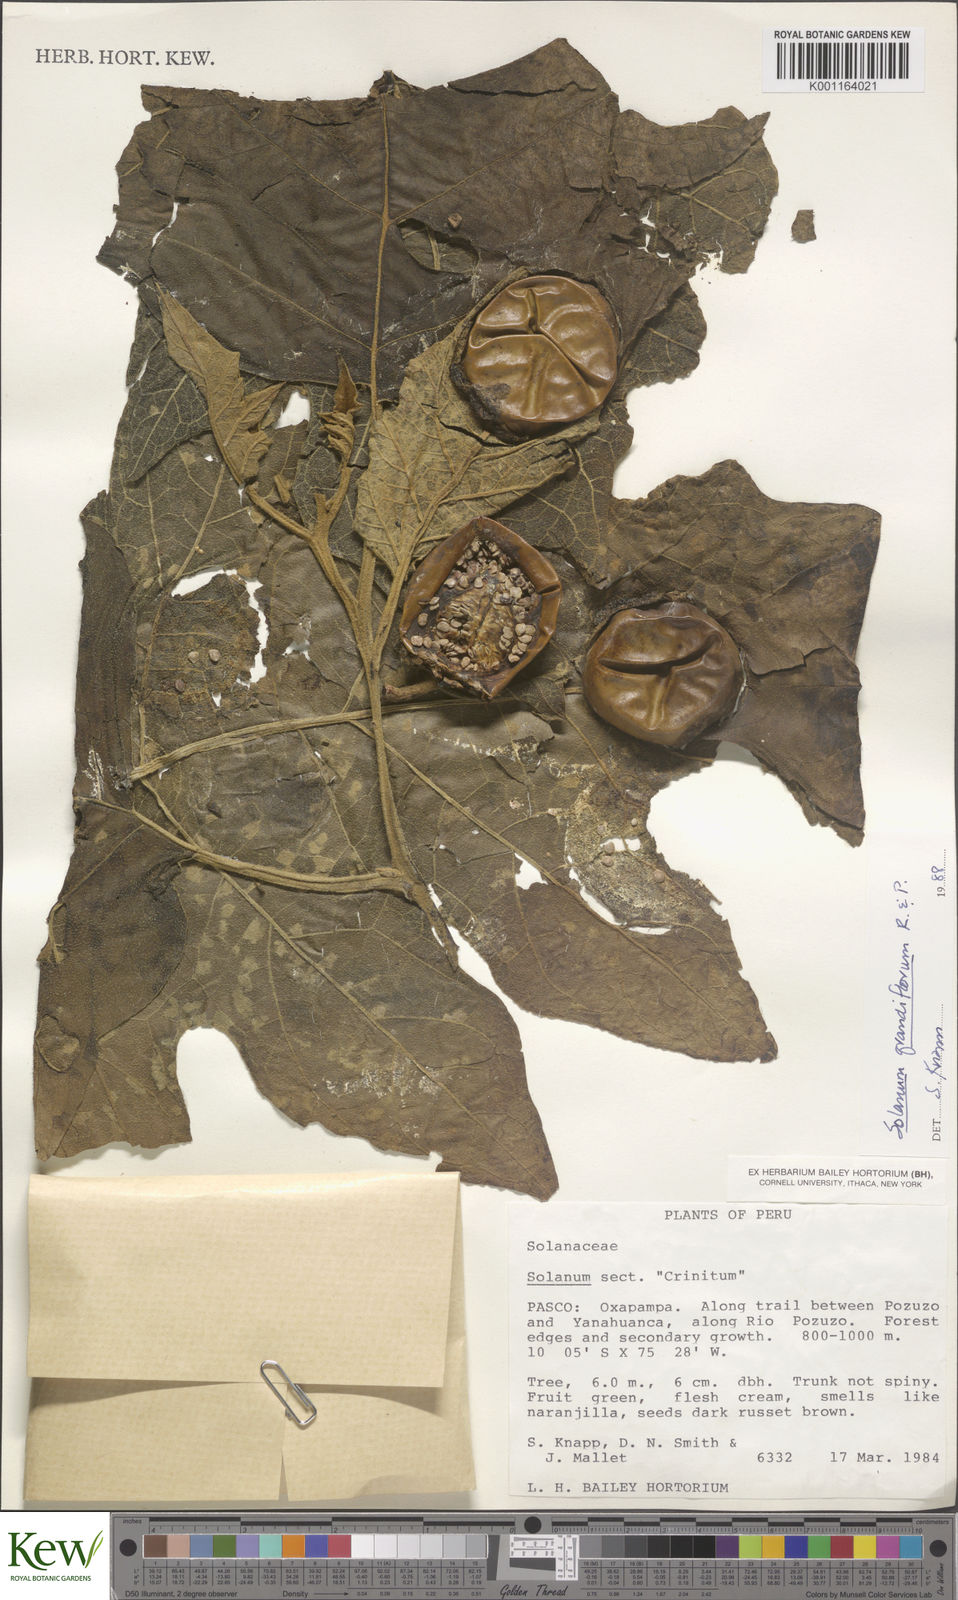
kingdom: Plantae
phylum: Tracheophyta
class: Magnoliopsida
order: Solanales
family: Solanaceae
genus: Solanum
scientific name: Solanum grandiflorum
